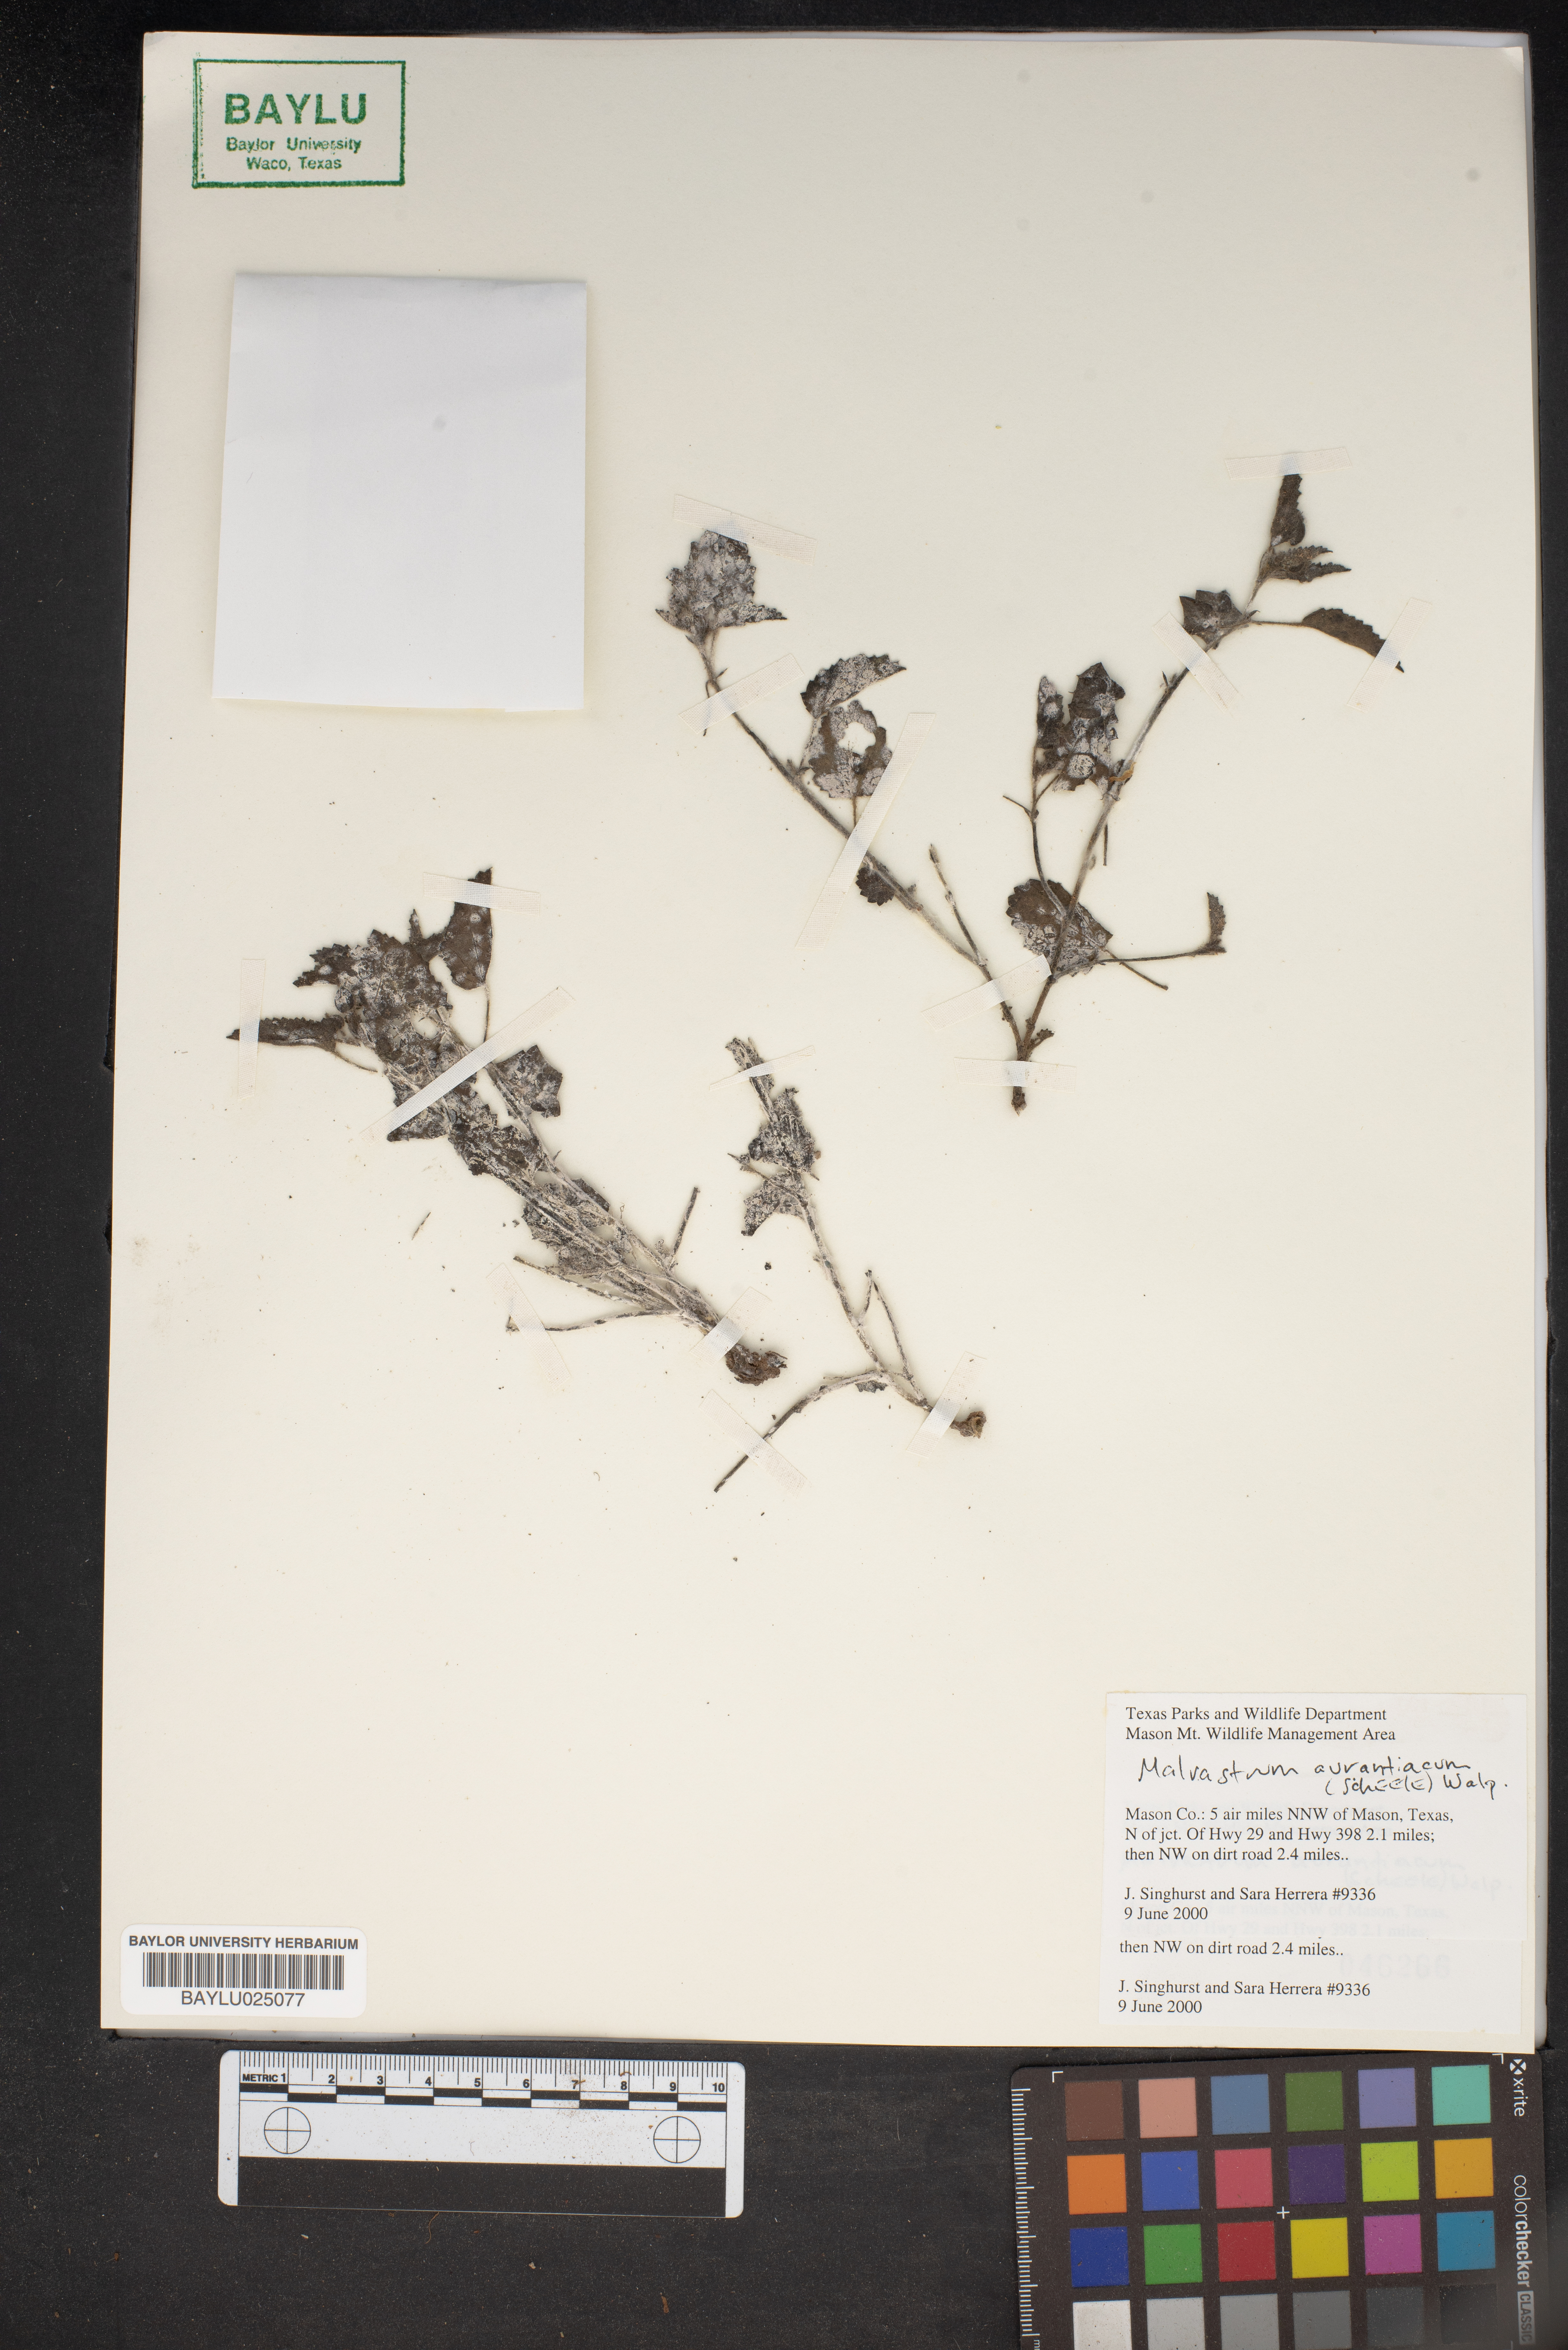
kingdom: Plantae
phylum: Tracheophyta
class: Magnoliopsida
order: Malvales
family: Malvaceae
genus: Malvastrum
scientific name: Malvastrum aurantiacum
